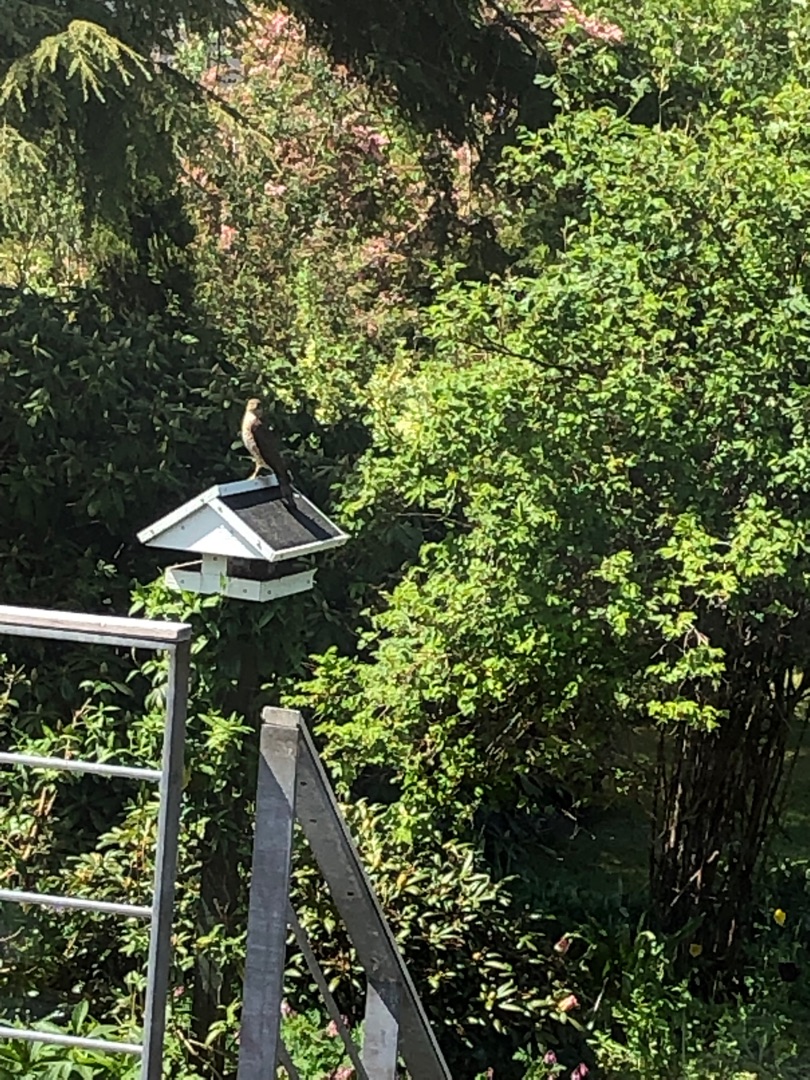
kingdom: Animalia
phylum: Chordata
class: Aves
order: Accipitriformes
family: Accipitridae
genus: Accipiter
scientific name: Accipiter nisus
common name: Spurvehøg
